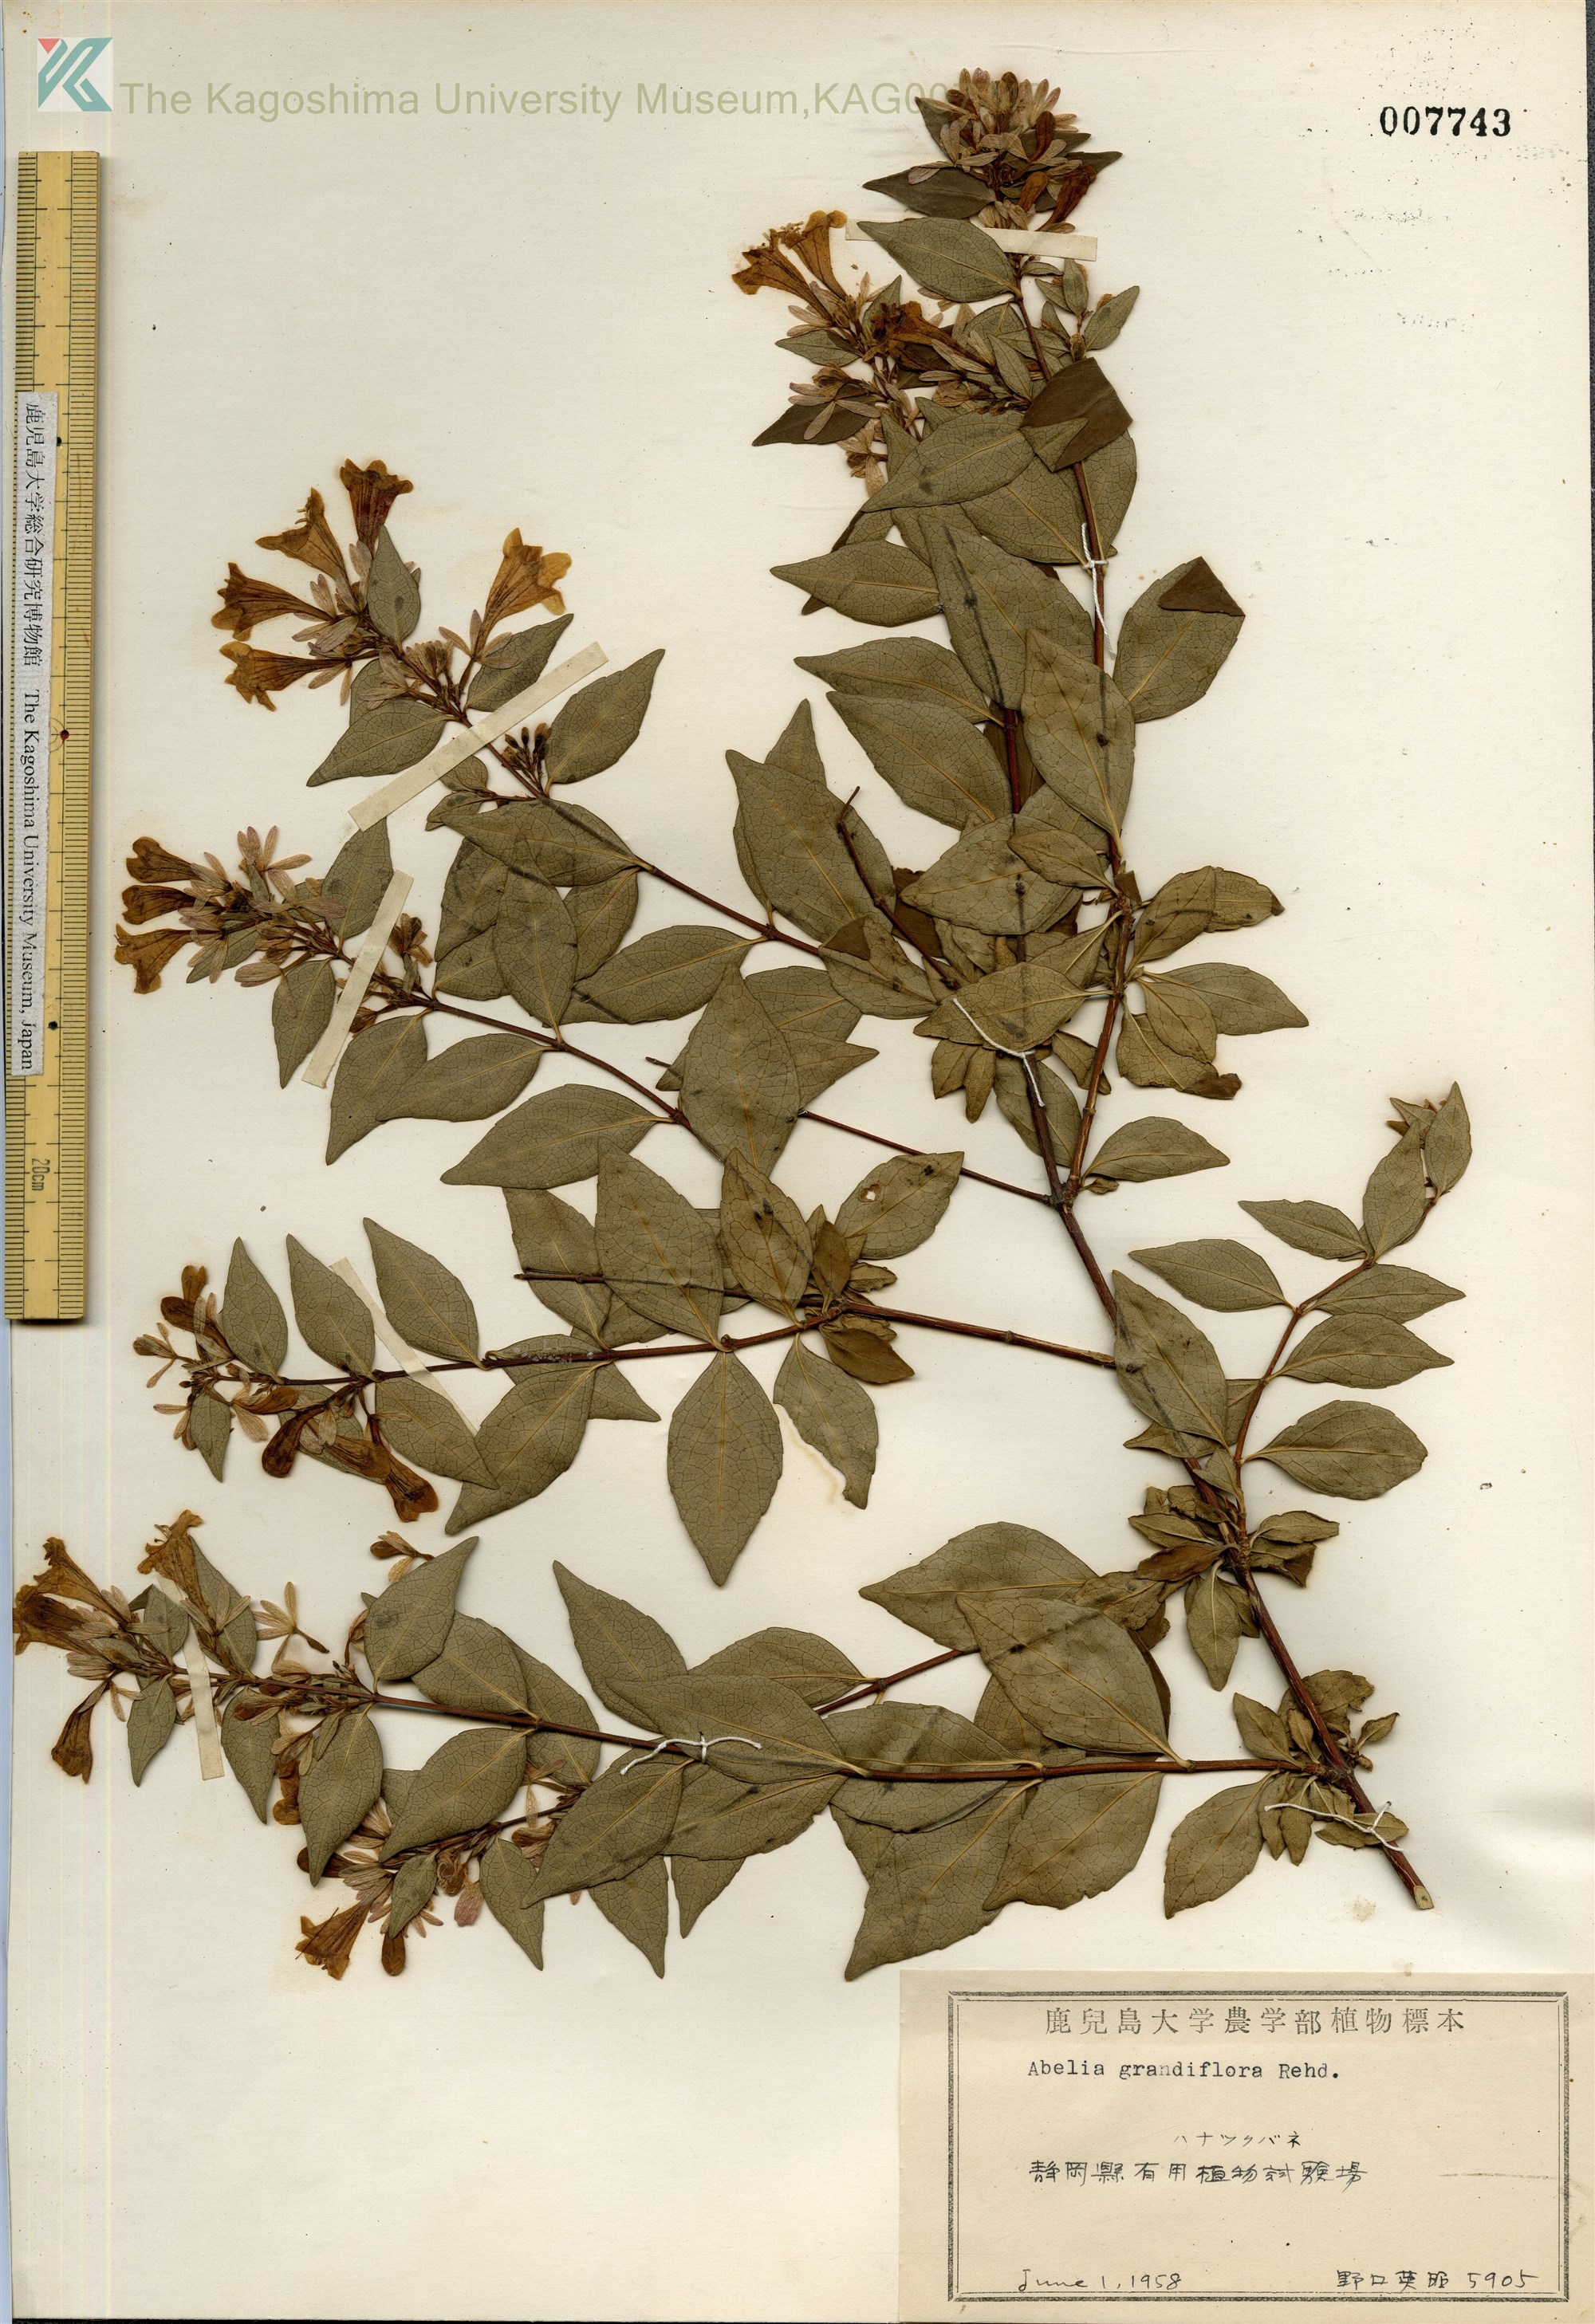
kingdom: Plantae
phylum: Tracheophyta
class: Magnoliopsida
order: Dipsacales
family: Caprifoliaceae
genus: Abelia
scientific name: Abelia chinensis
